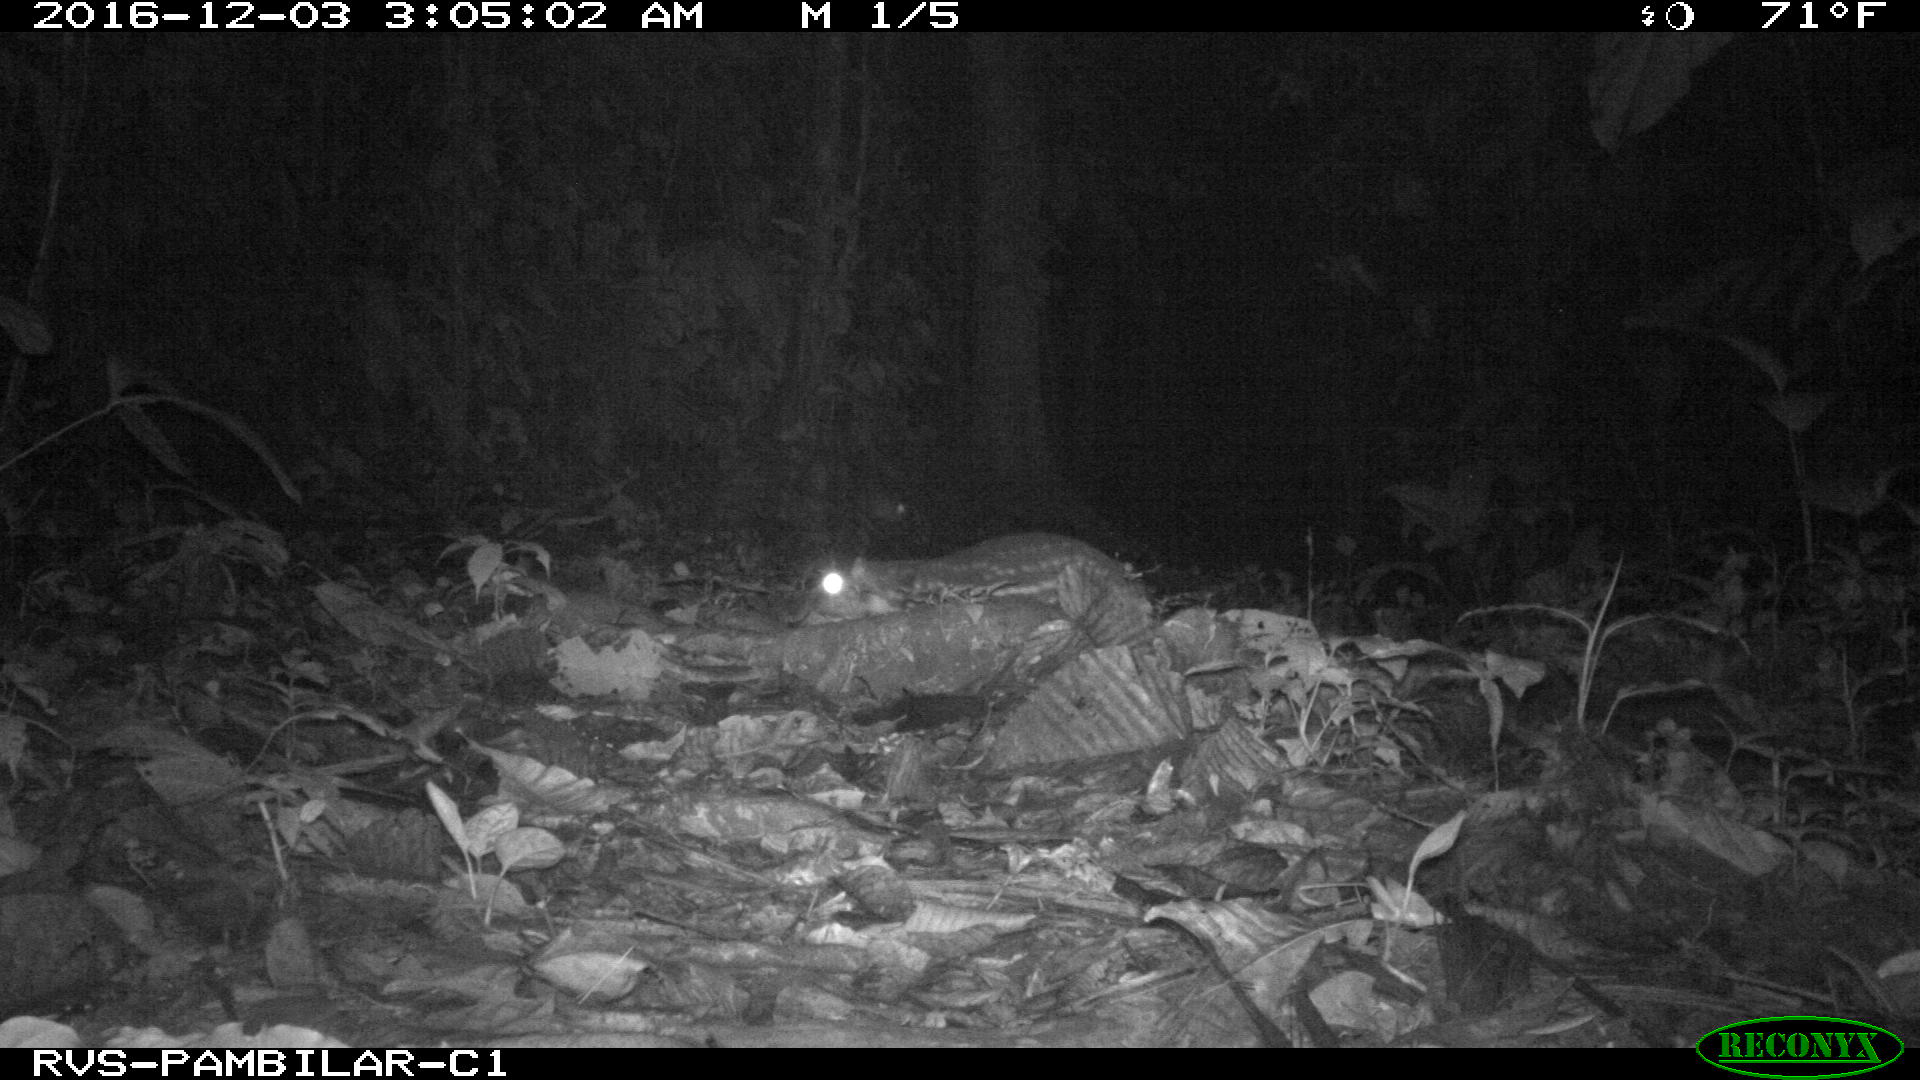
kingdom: Animalia
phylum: Chordata
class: Mammalia
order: Rodentia
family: Cuniculidae
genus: Cuniculus
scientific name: Cuniculus paca
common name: Lowland paca
